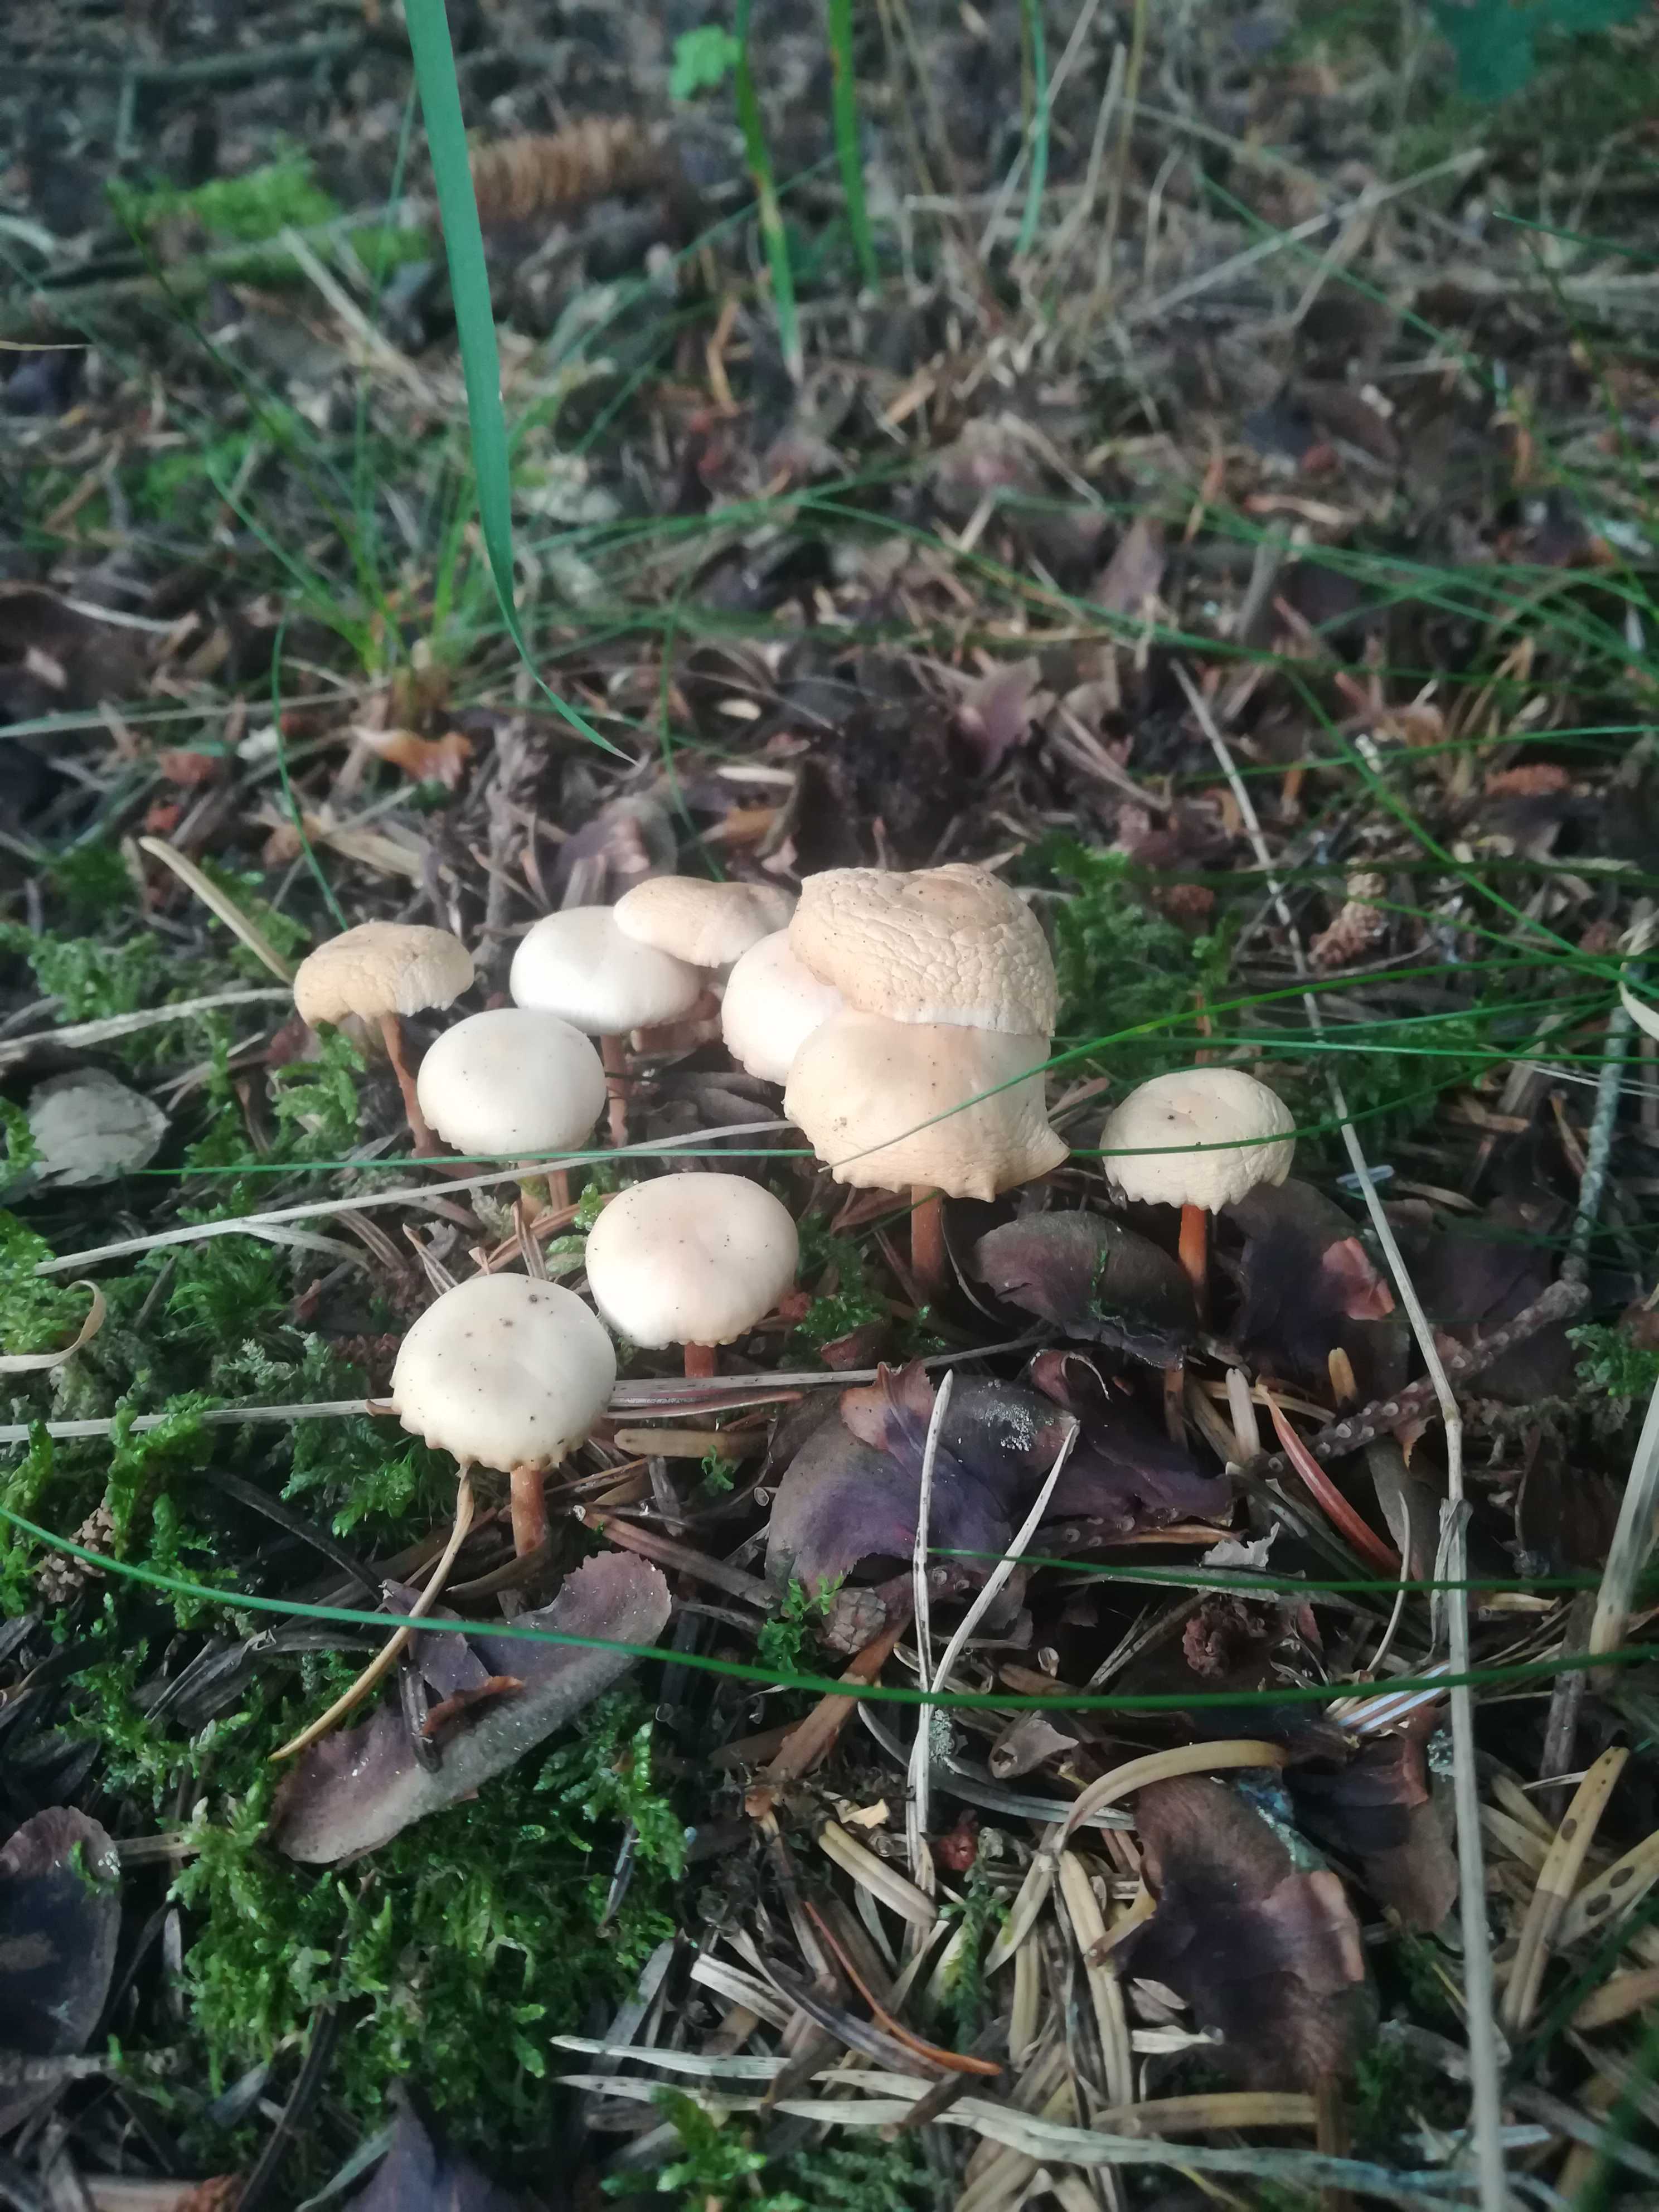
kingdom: Fungi
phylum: Basidiomycota
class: Agaricomycetes
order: Agaricales
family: Omphalotaceae
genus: Gymnopus
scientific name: Gymnopus dryophilus
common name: løv-fladhat
